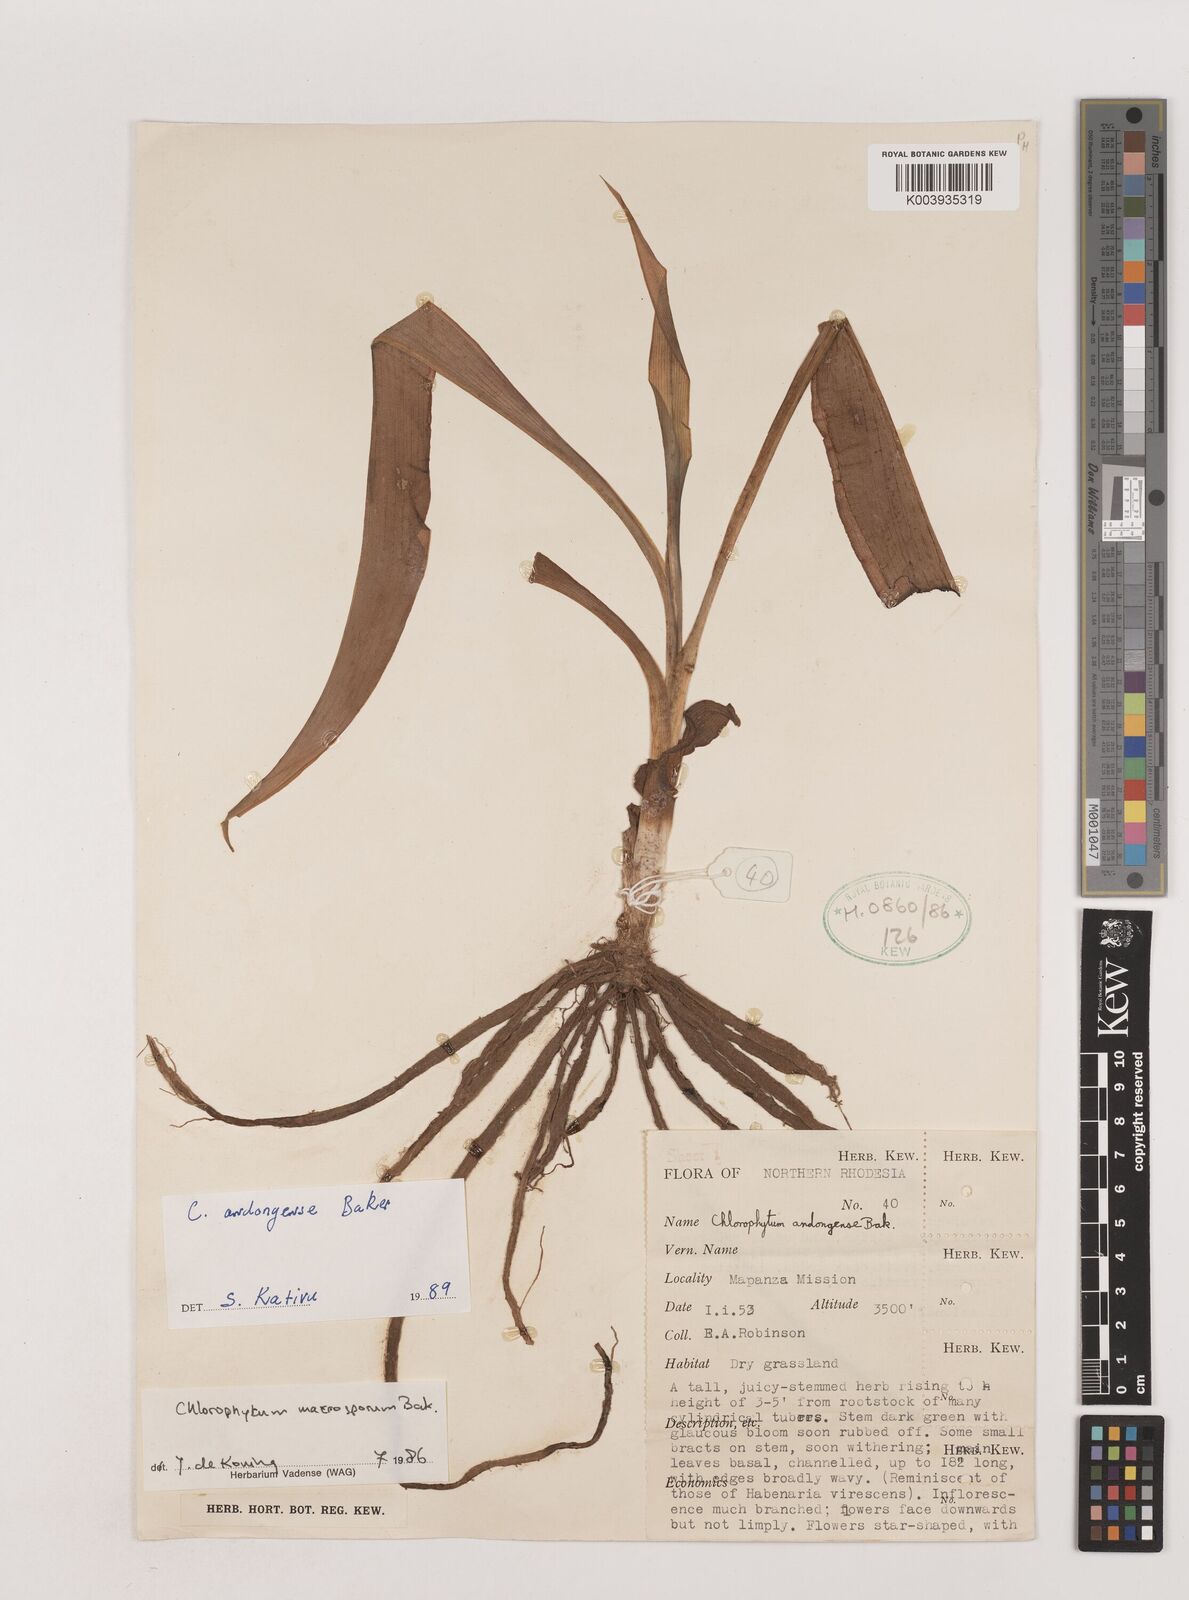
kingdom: Plantae
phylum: Tracheophyta
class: Liliopsida
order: Asparagales
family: Asparagaceae
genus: Chlorophytum
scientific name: Chlorophytum andongense
